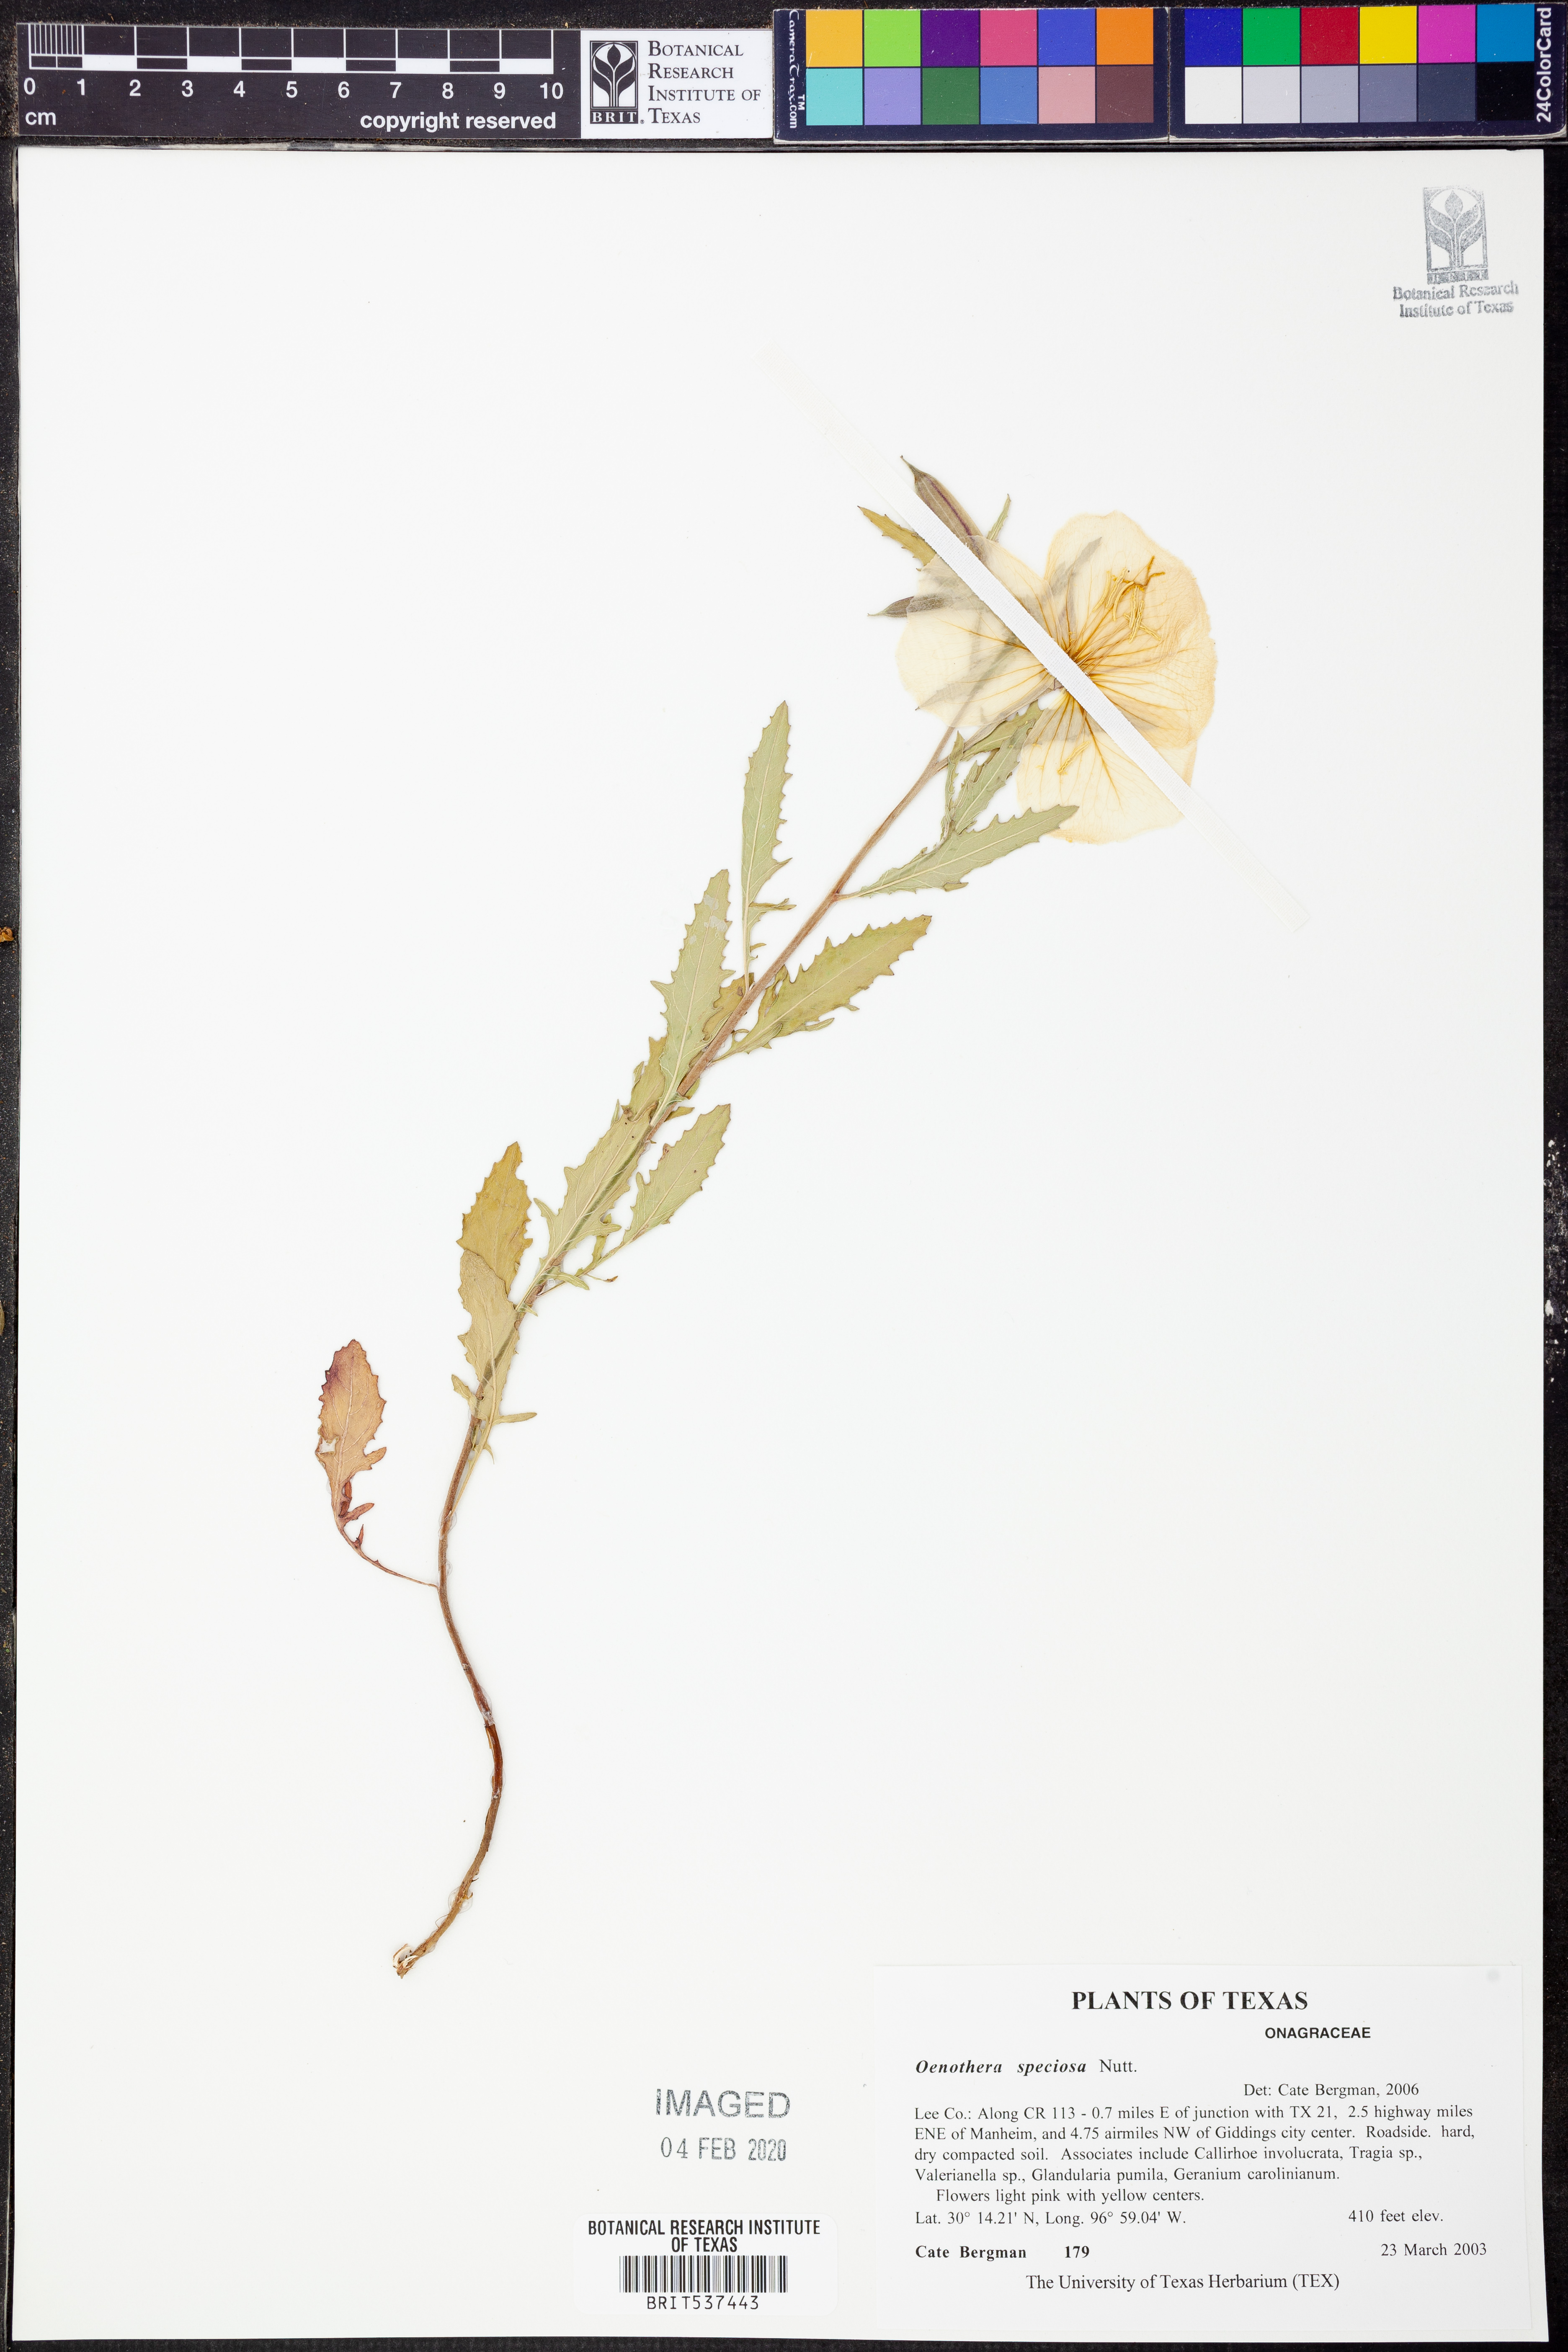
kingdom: Plantae
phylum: Tracheophyta
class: Magnoliopsida
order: Myrtales
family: Onagraceae
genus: Oenothera
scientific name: Oenothera speciosa
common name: White evening-primrose
